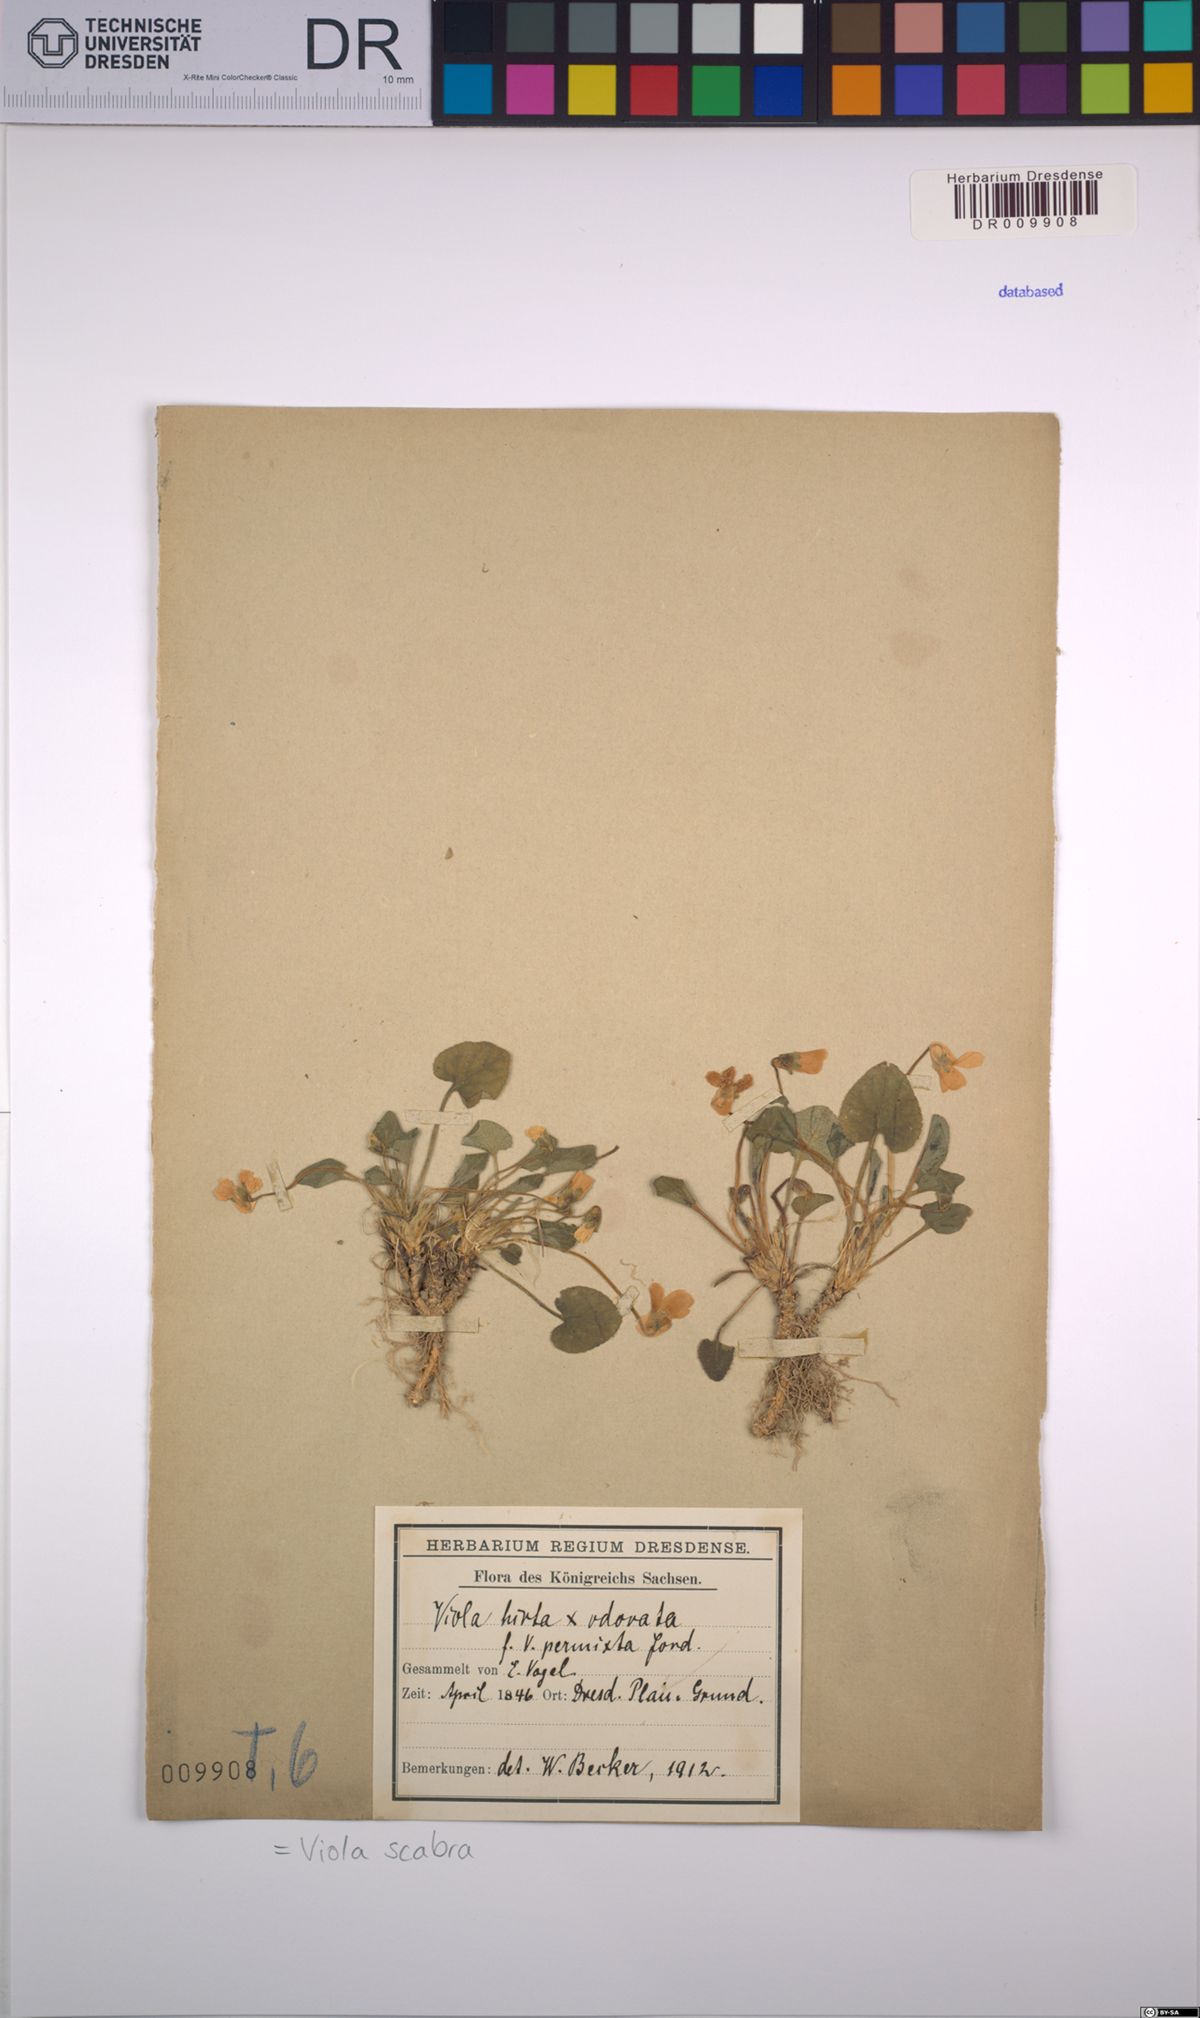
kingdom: Plantae
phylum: Tracheophyta
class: Magnoliopsida
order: Malpighiales
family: Violaceae
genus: Viola
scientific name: Viola scabra
